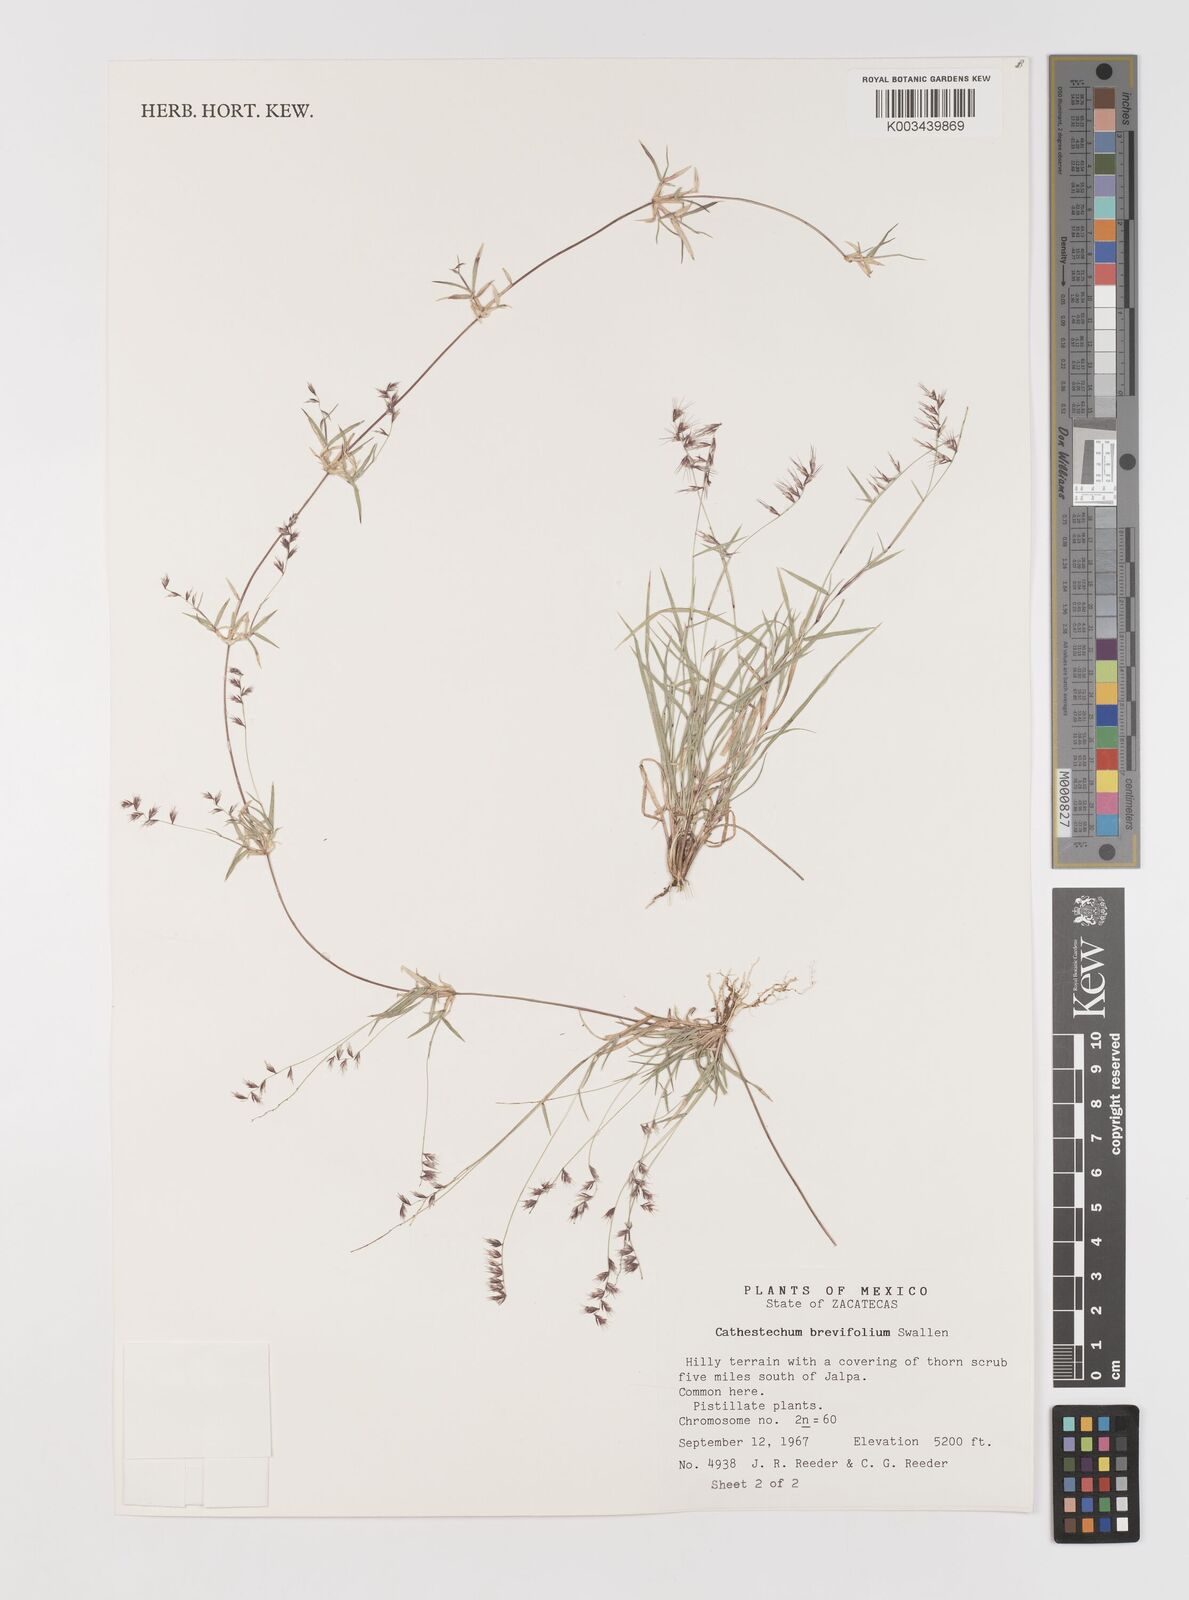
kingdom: Plantae
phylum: Tracheophyta
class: Liliopsida
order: Poales
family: Poaceae
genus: Bouteloua
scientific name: Bouteloua diversispicula
